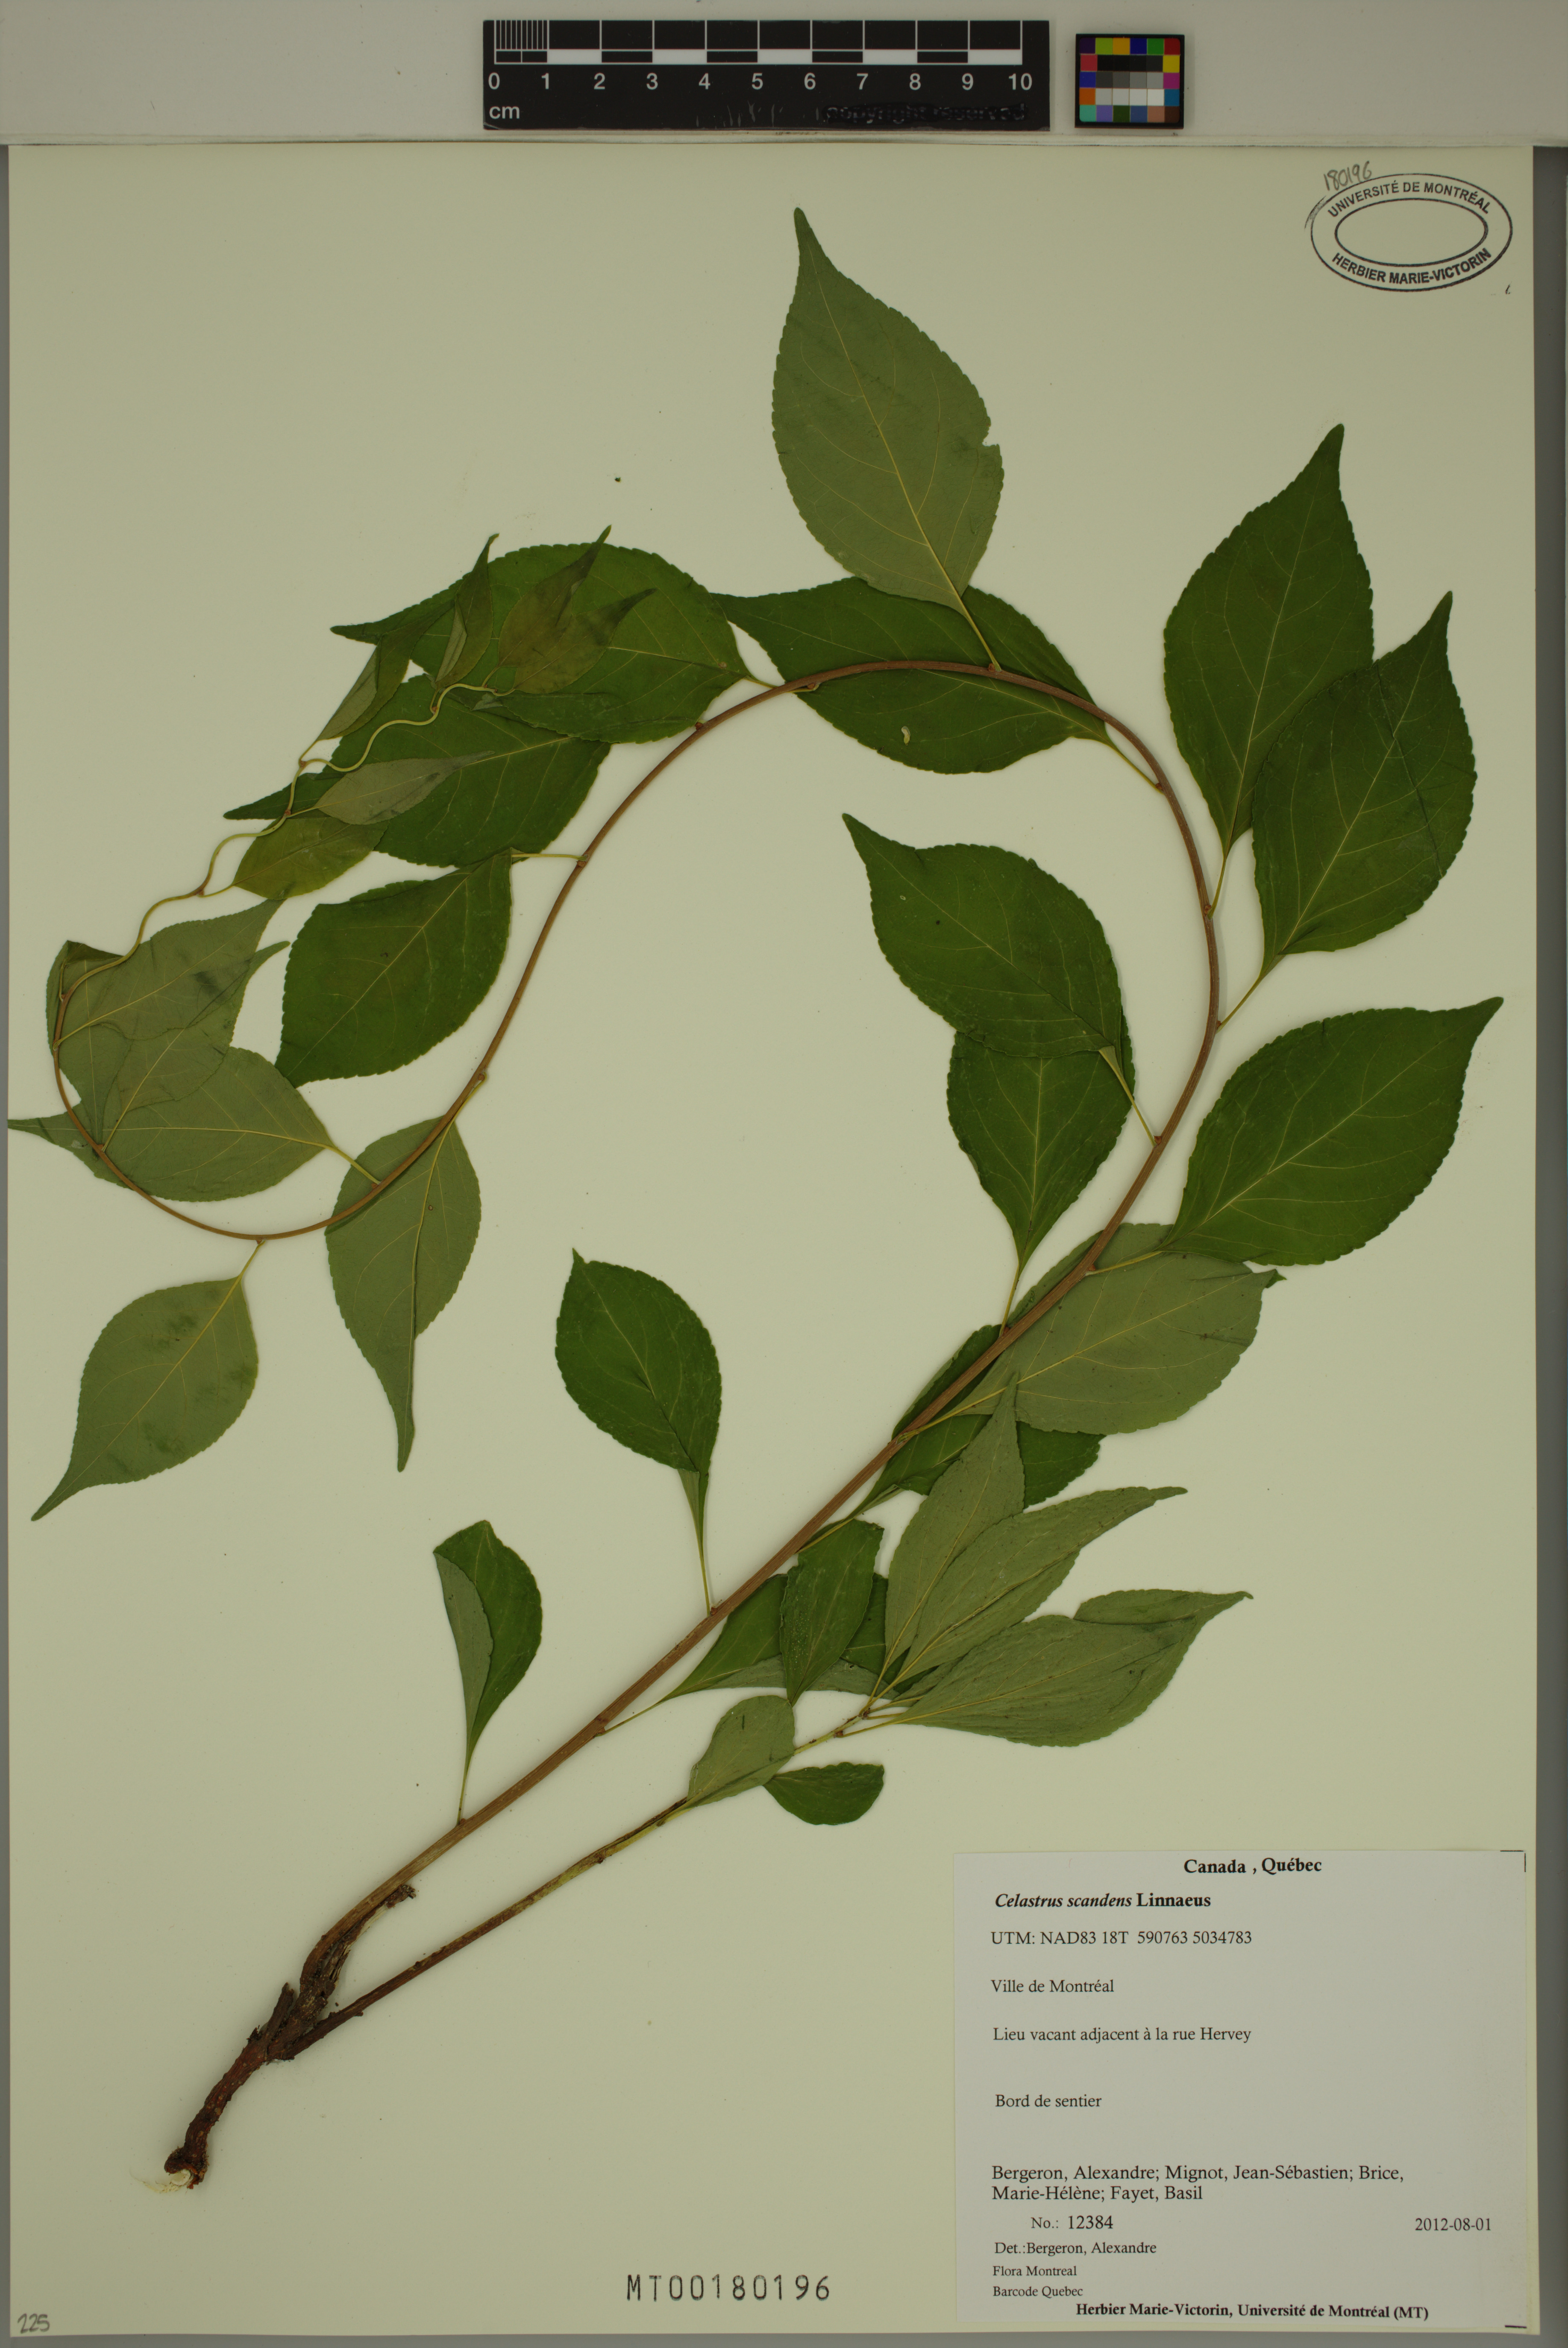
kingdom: Plantae
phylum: Tracheophyta
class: Magnoliopsida
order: Celastrales
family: Celastraceae
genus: Celastrus
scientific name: Celastrus scandens
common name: American bittersweet
